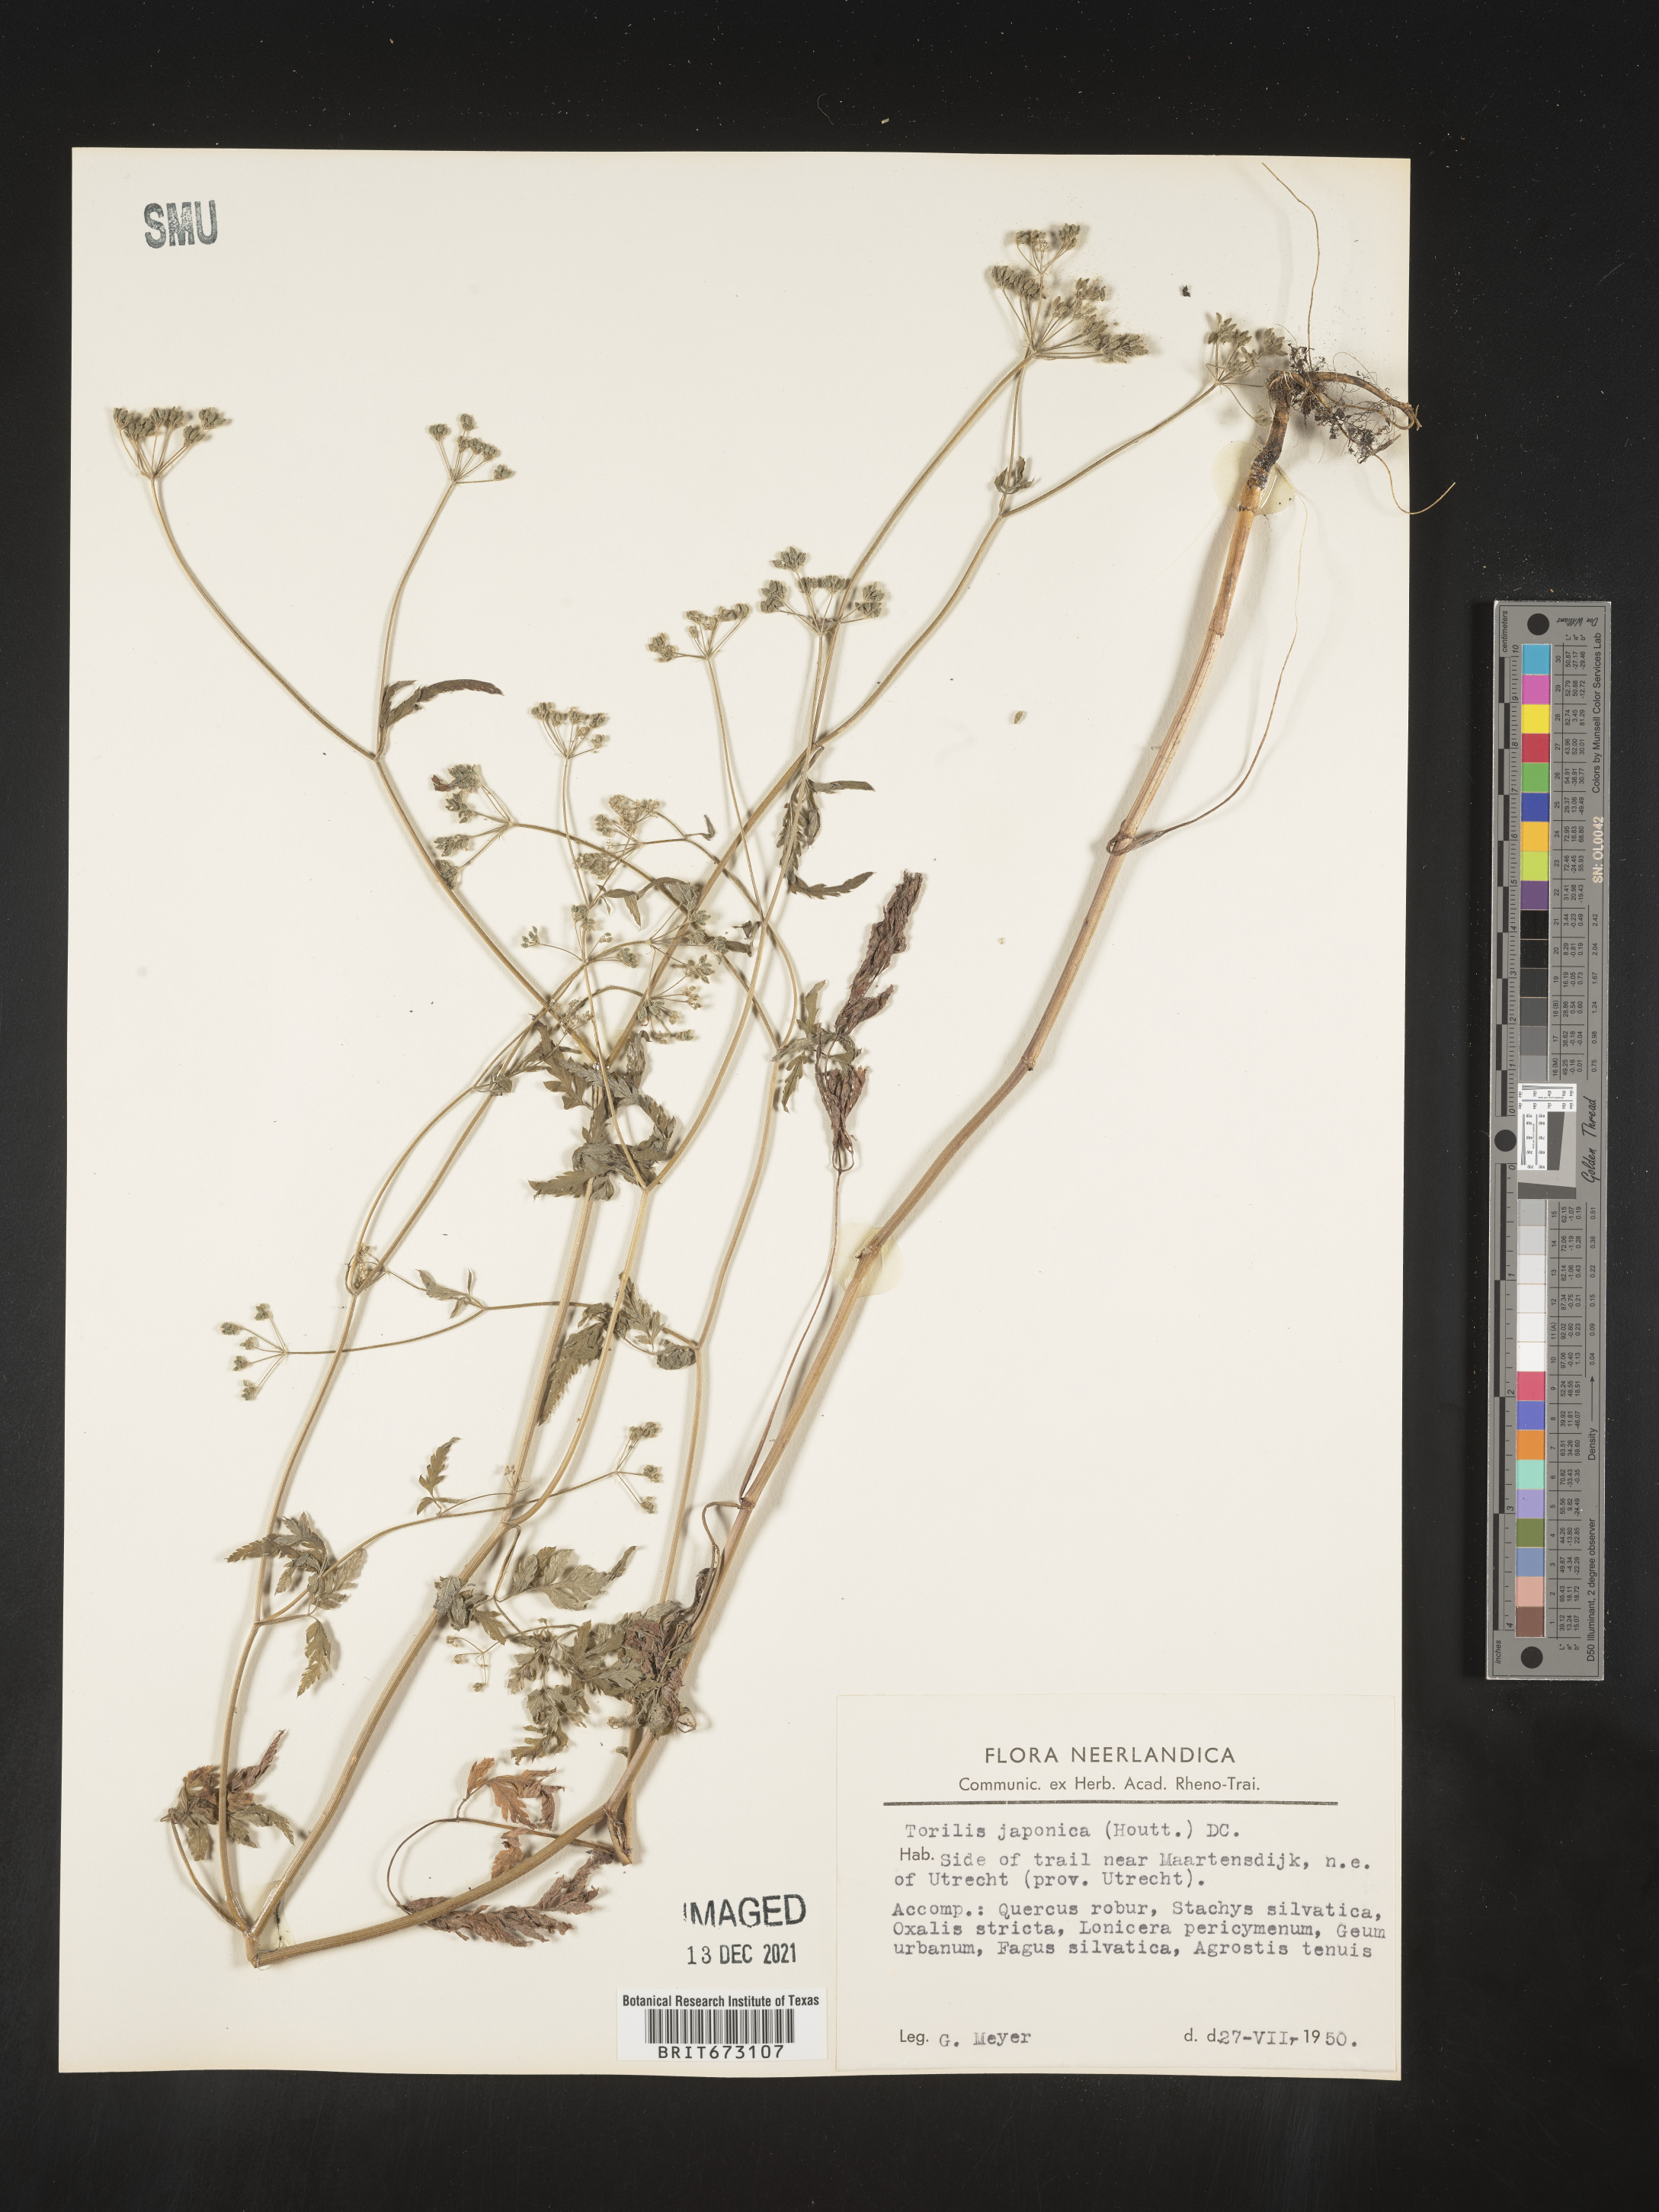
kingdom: Plantae
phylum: Tracheophyta
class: Magnoliopsida
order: Apiales
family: Apiaceae
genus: Torilis
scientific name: Torilis
